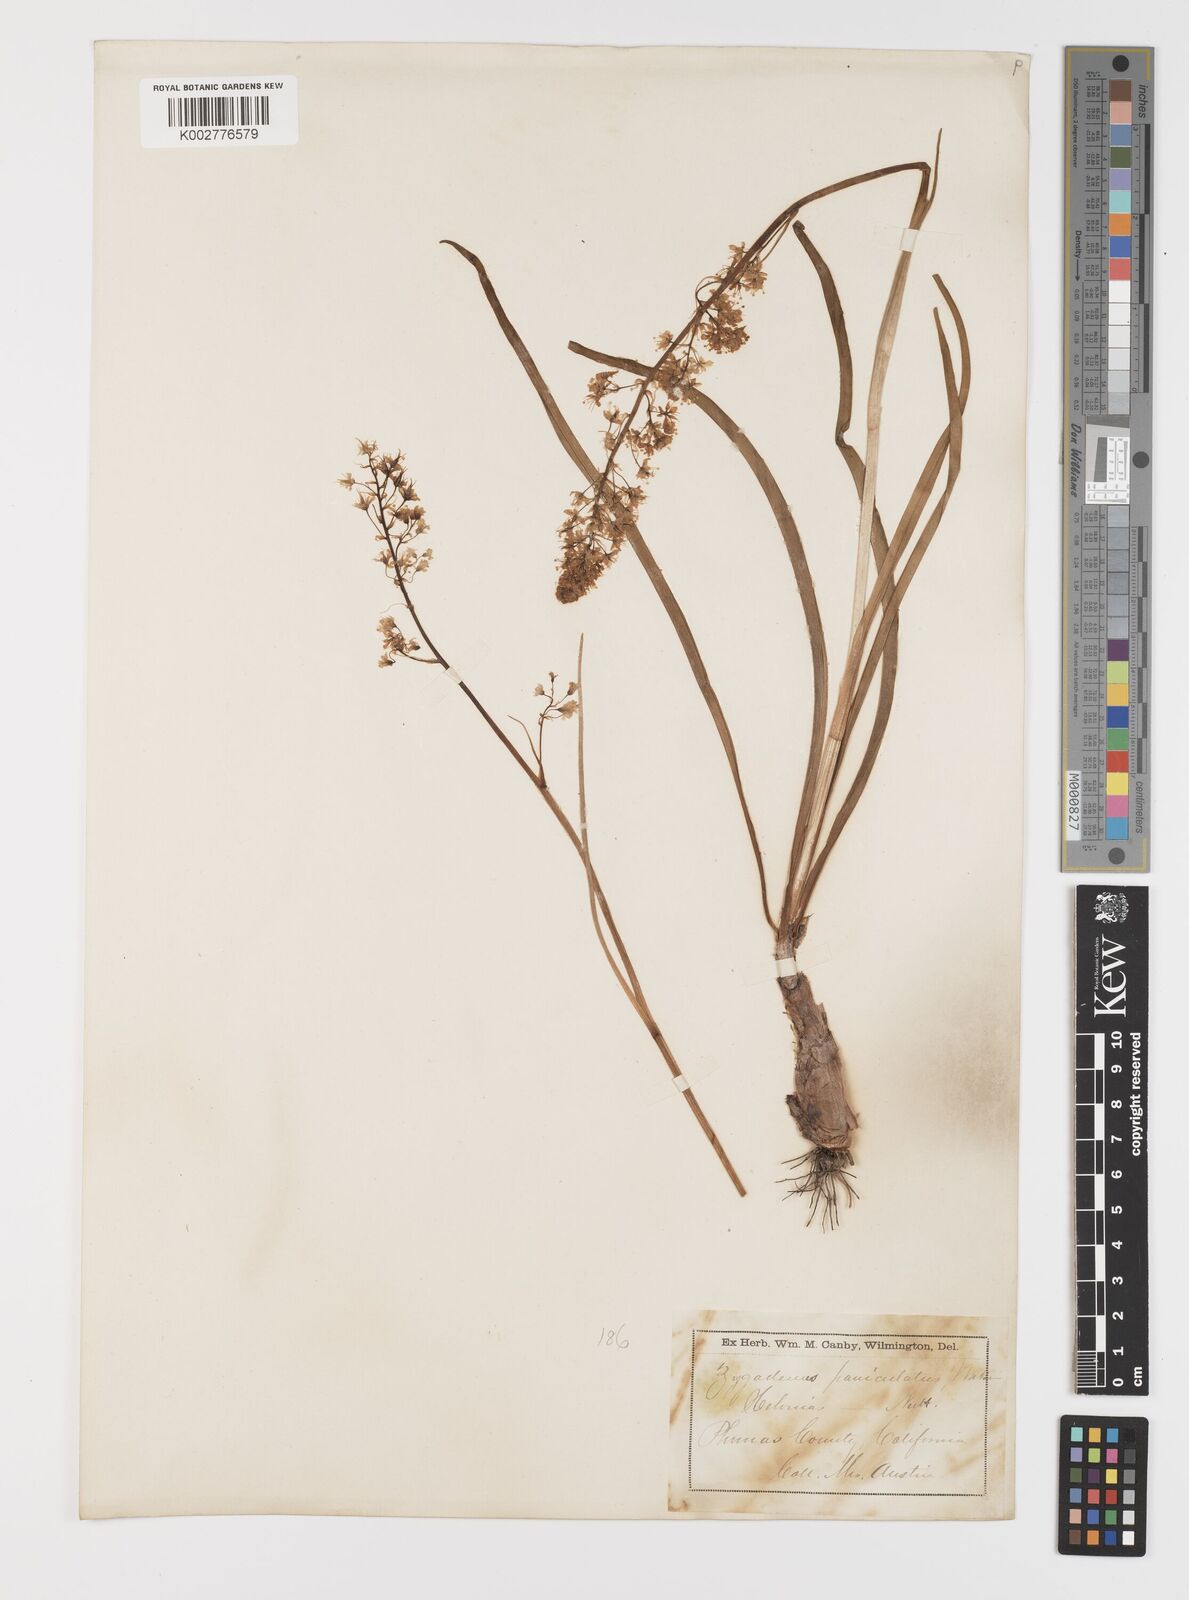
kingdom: Plantae
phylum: Tracheophyta
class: Liliopsida
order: Liliales
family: Melanthiaceae
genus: Toxicoscordion
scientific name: Toxicoscordion paniculatum
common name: Foothill death camas
